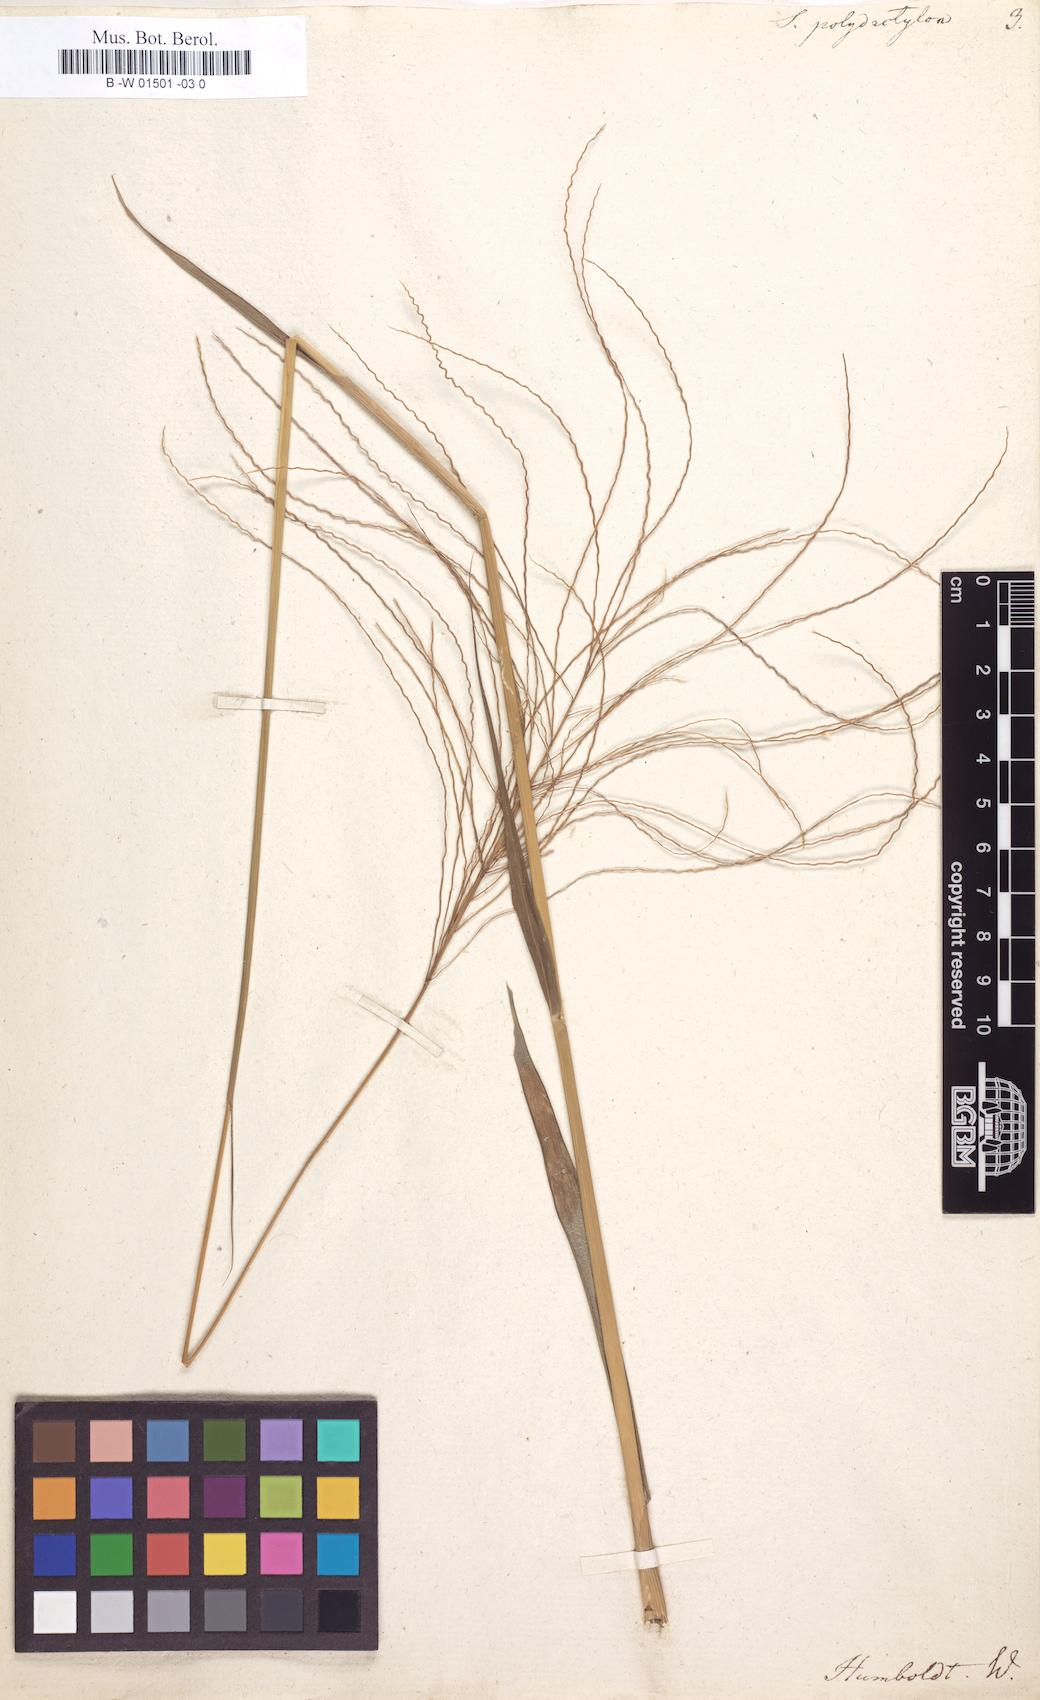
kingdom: Plantae
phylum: Tracheophyta
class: Liliopsida
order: Poales
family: Poaceae
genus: Stapfochloa
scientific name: Stapfochloa elata
